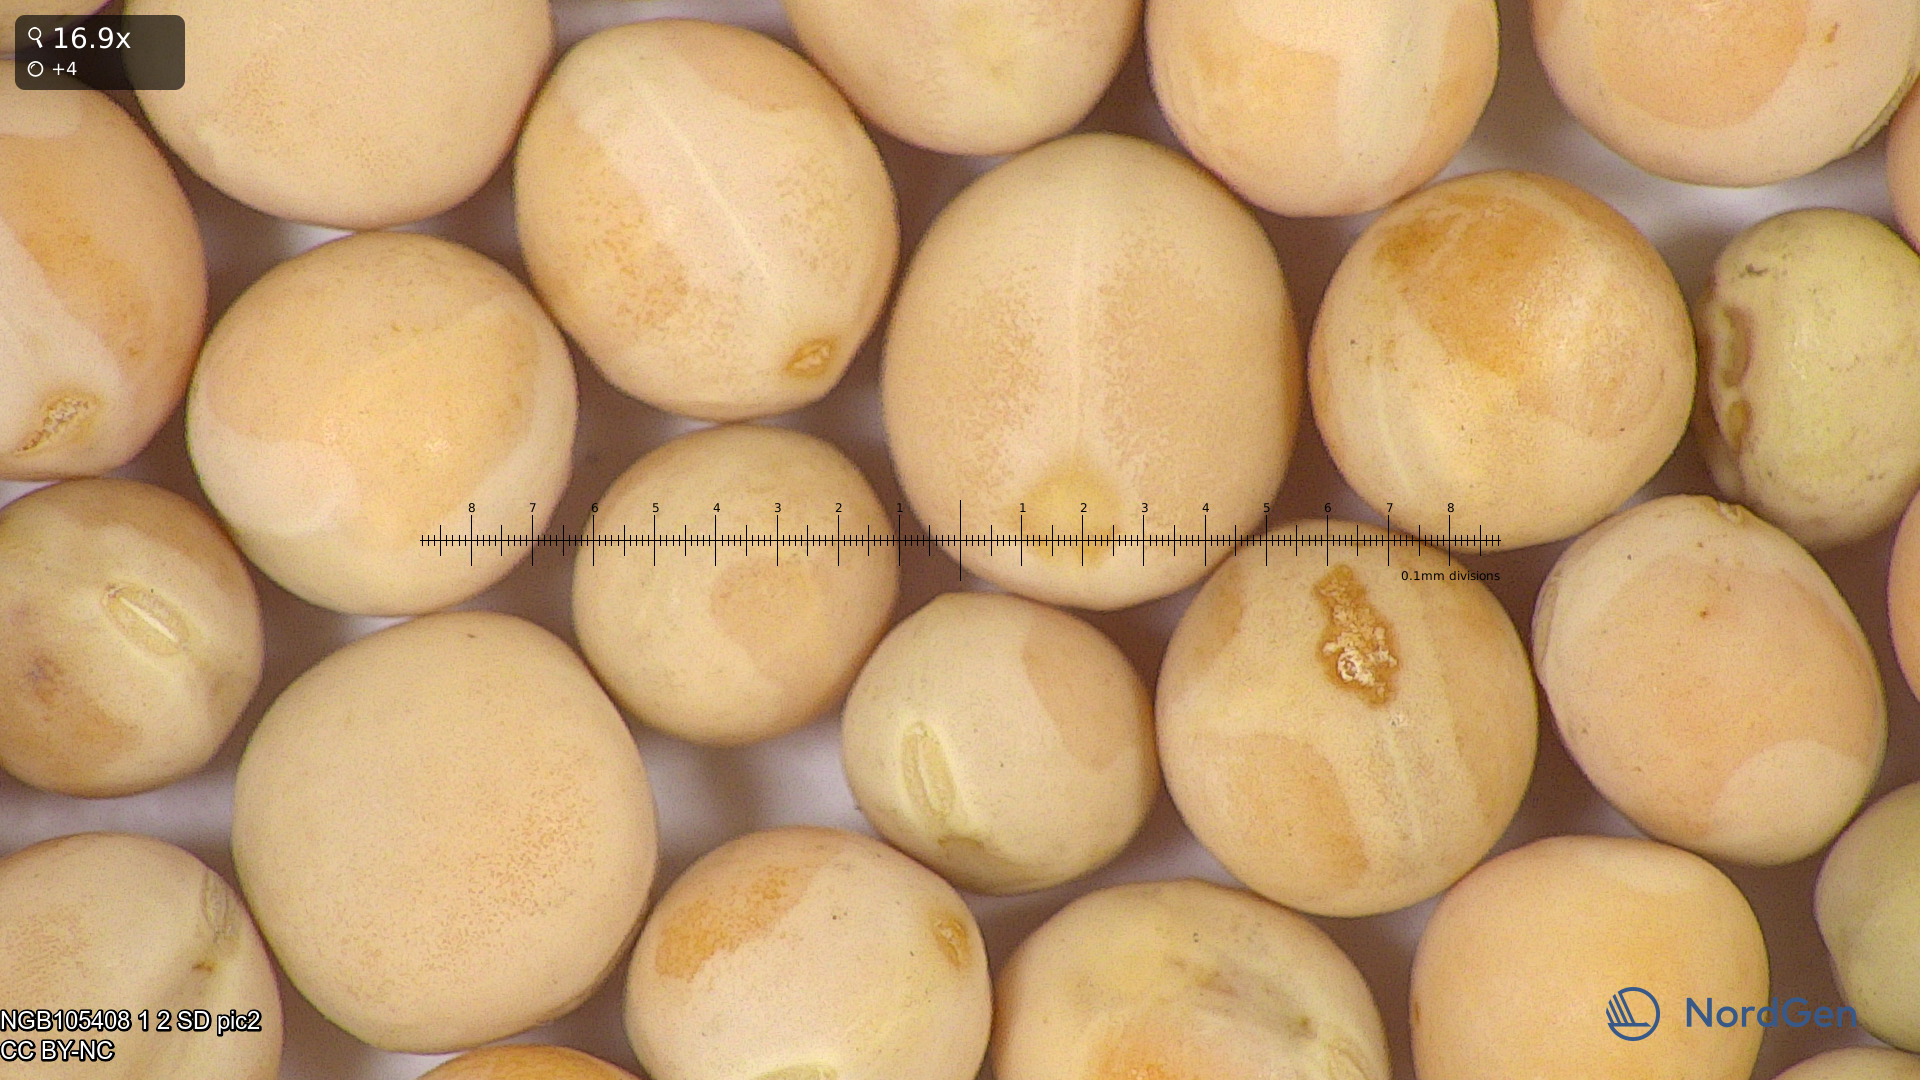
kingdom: Plantae
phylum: Tracheophyta
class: Magnoliopsida
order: Fabales
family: Fabaceae
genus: Lathyrus
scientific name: Lathyrus oleraceus
